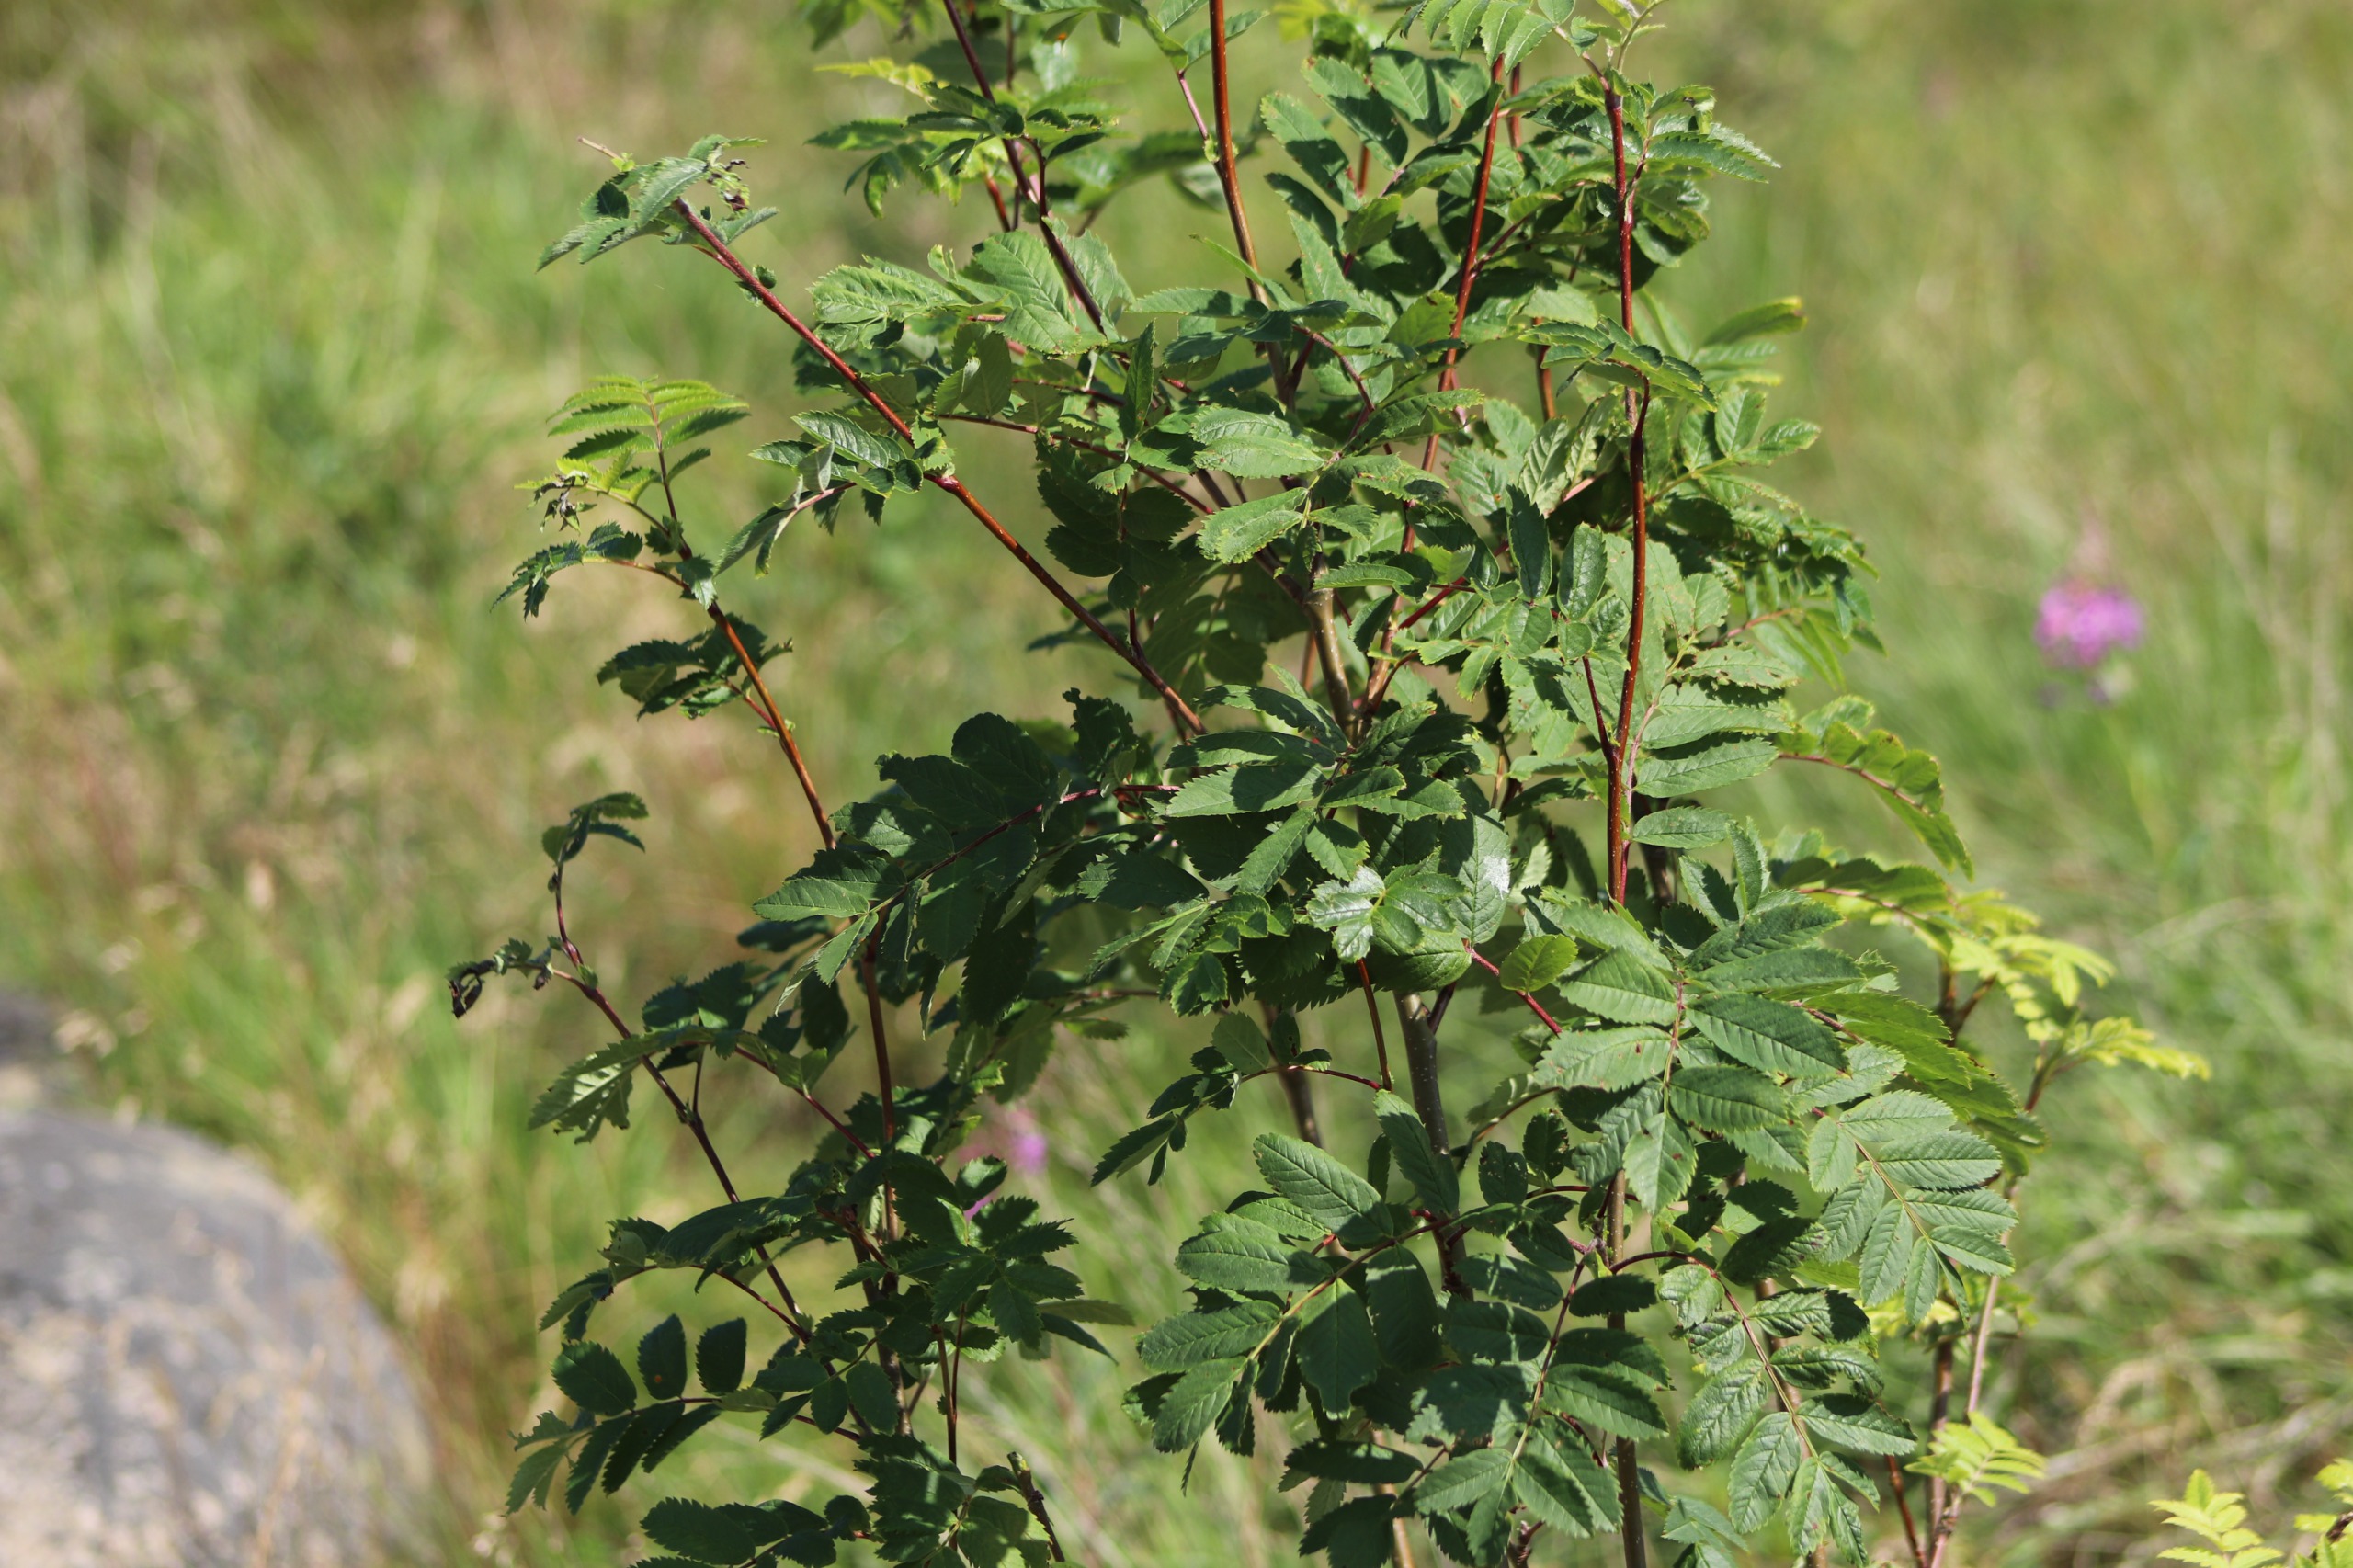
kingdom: Plantae
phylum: Tracheophyta
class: Magnoliopsida
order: Rosales
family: Rosaceae
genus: Sorbus
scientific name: Sorbus aucuparia
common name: Almindelig røn
